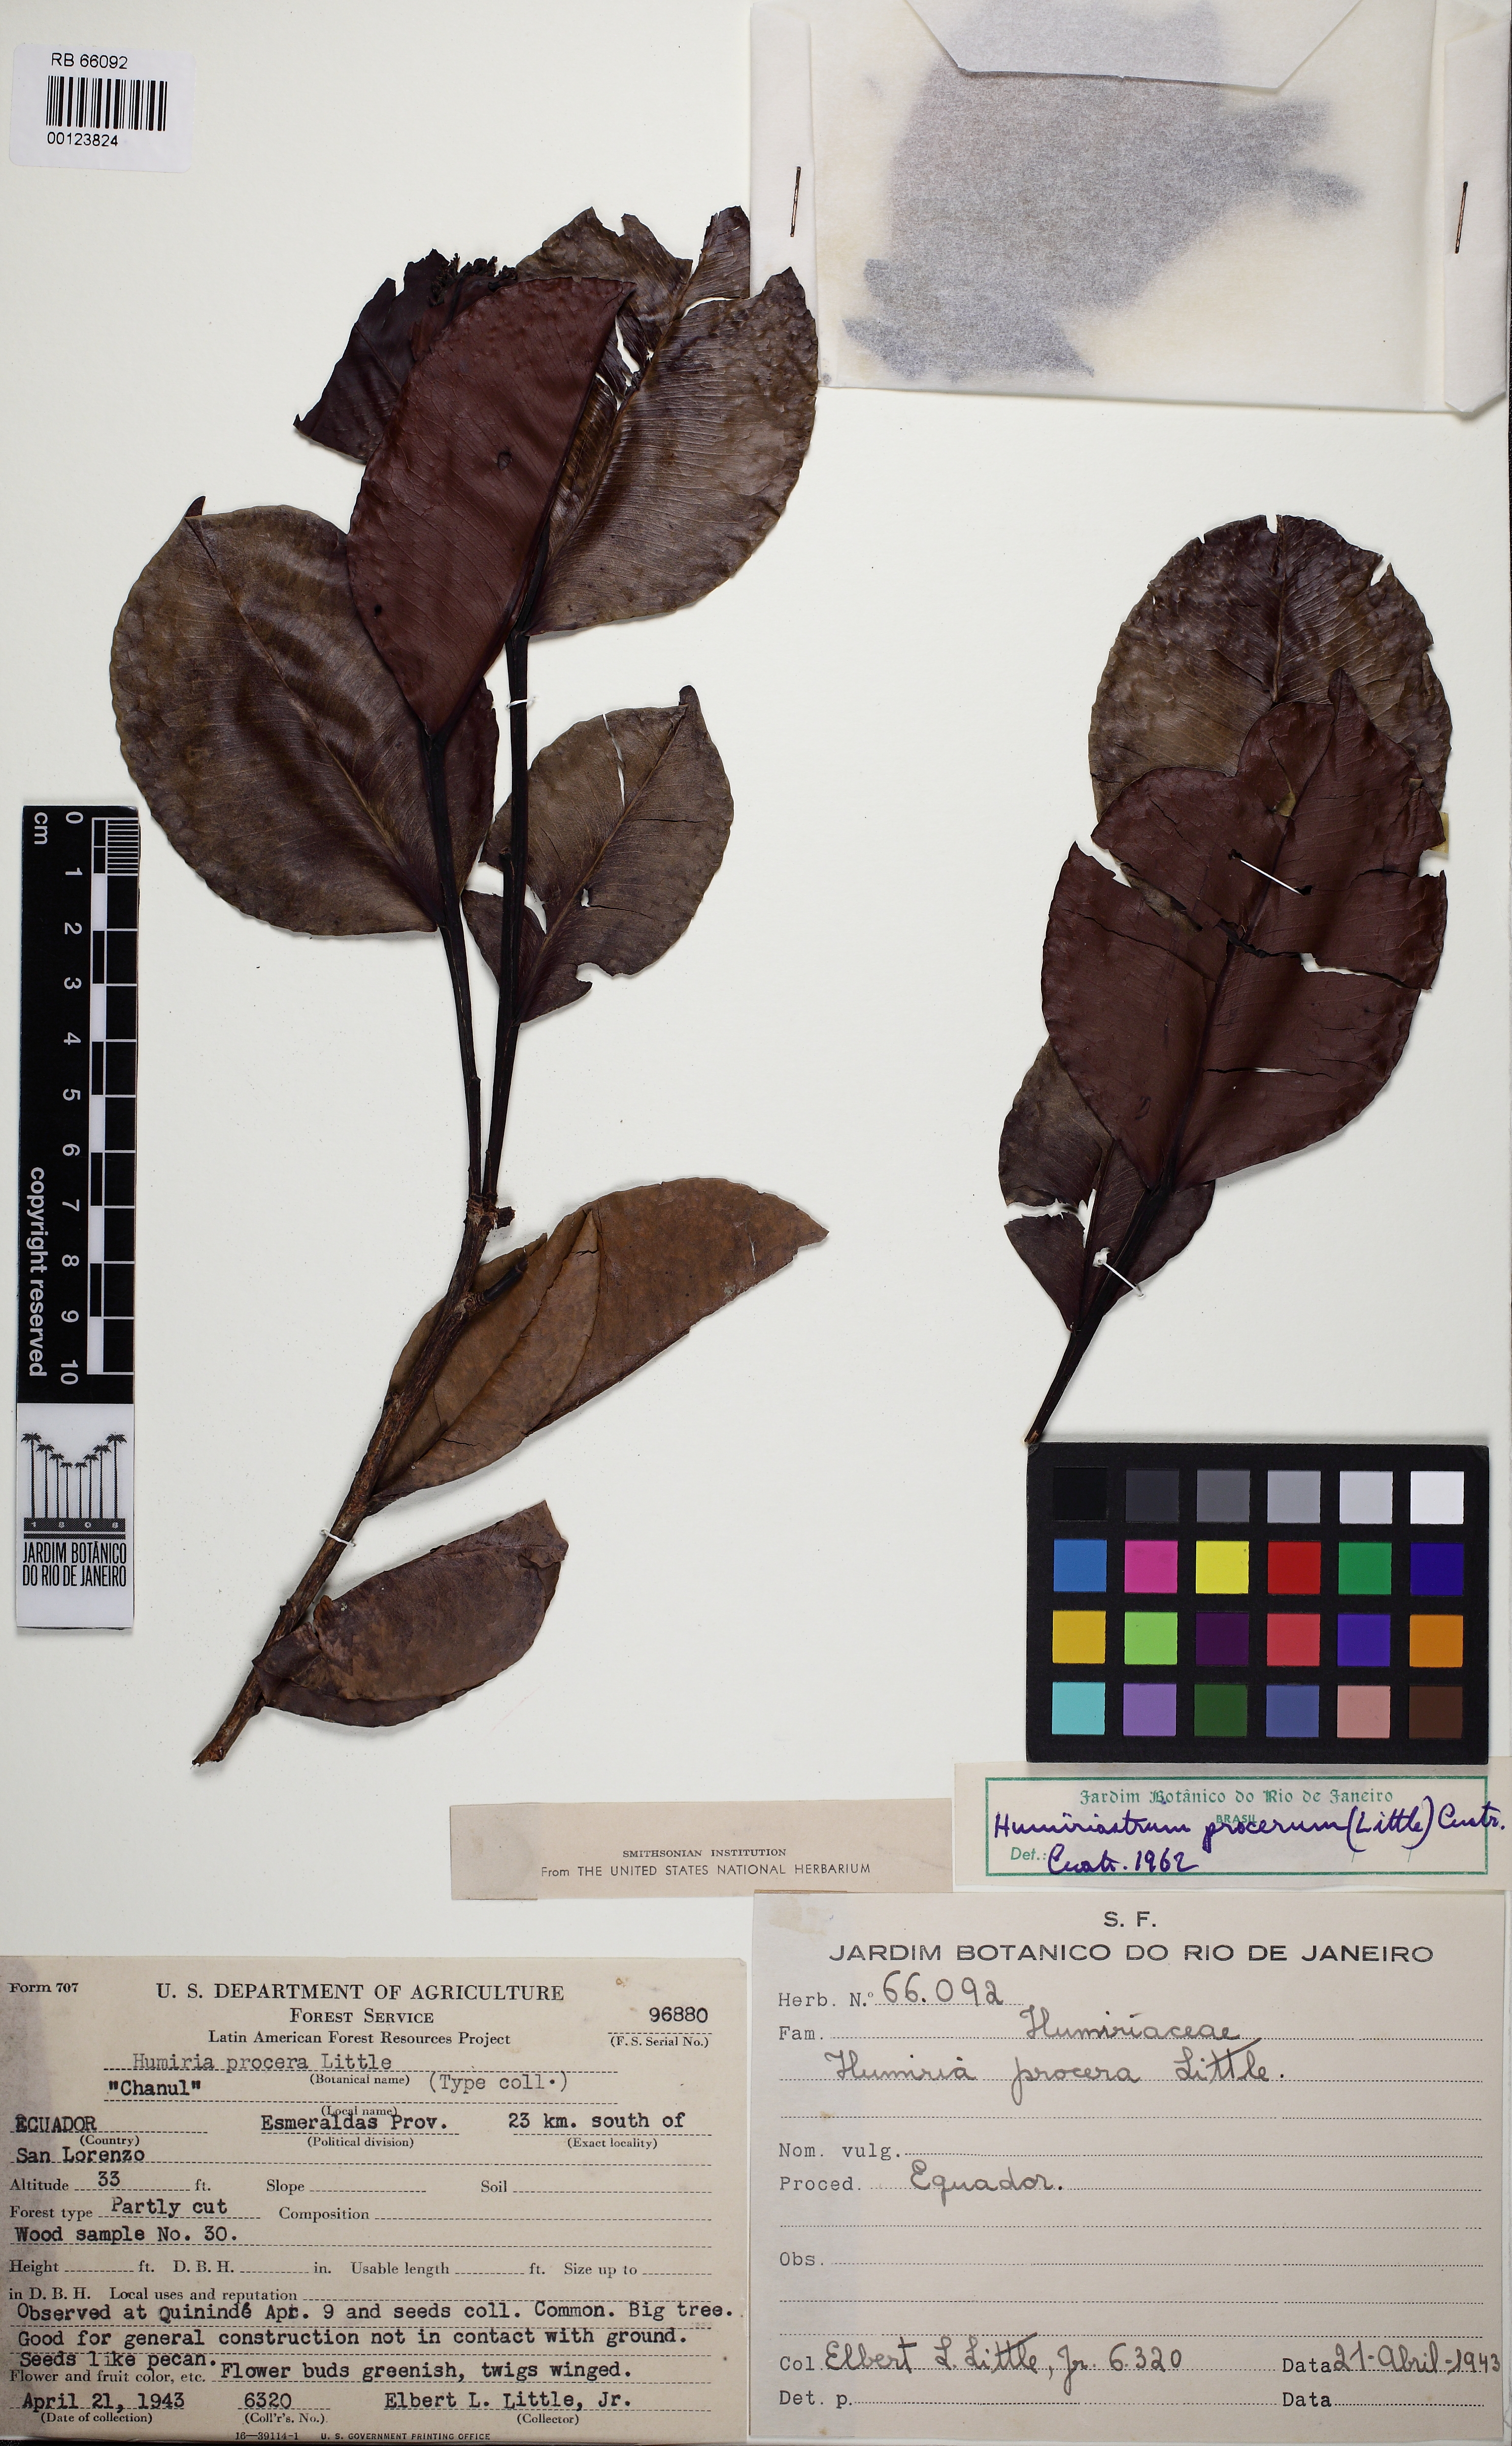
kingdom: Plantae
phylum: Tracheophyta
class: Magnoliopsida
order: Malpighiales
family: Humiriaceae
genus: Humiriastrum
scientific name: Humiriastrum procerum
